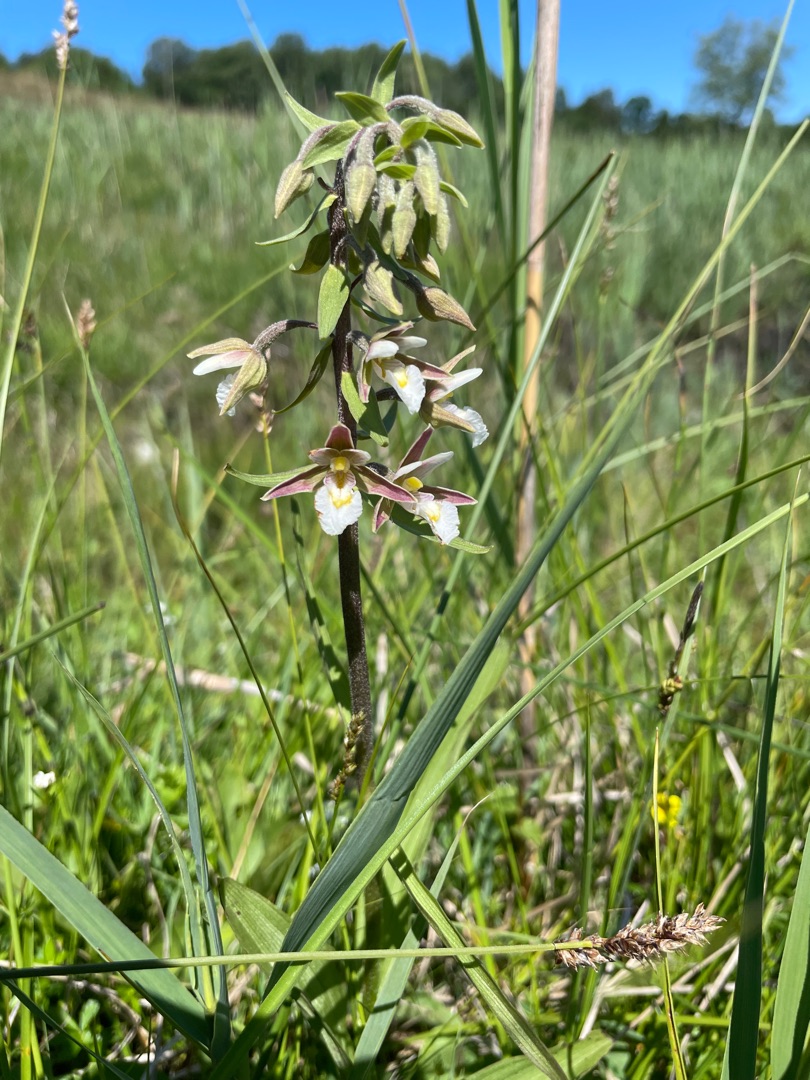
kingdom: Plantae
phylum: Tracheophyta
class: Liliopsida
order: Asparagales
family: Orchidaceae
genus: Epipactis
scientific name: Epipactis palustris
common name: Sump-hullæbe
